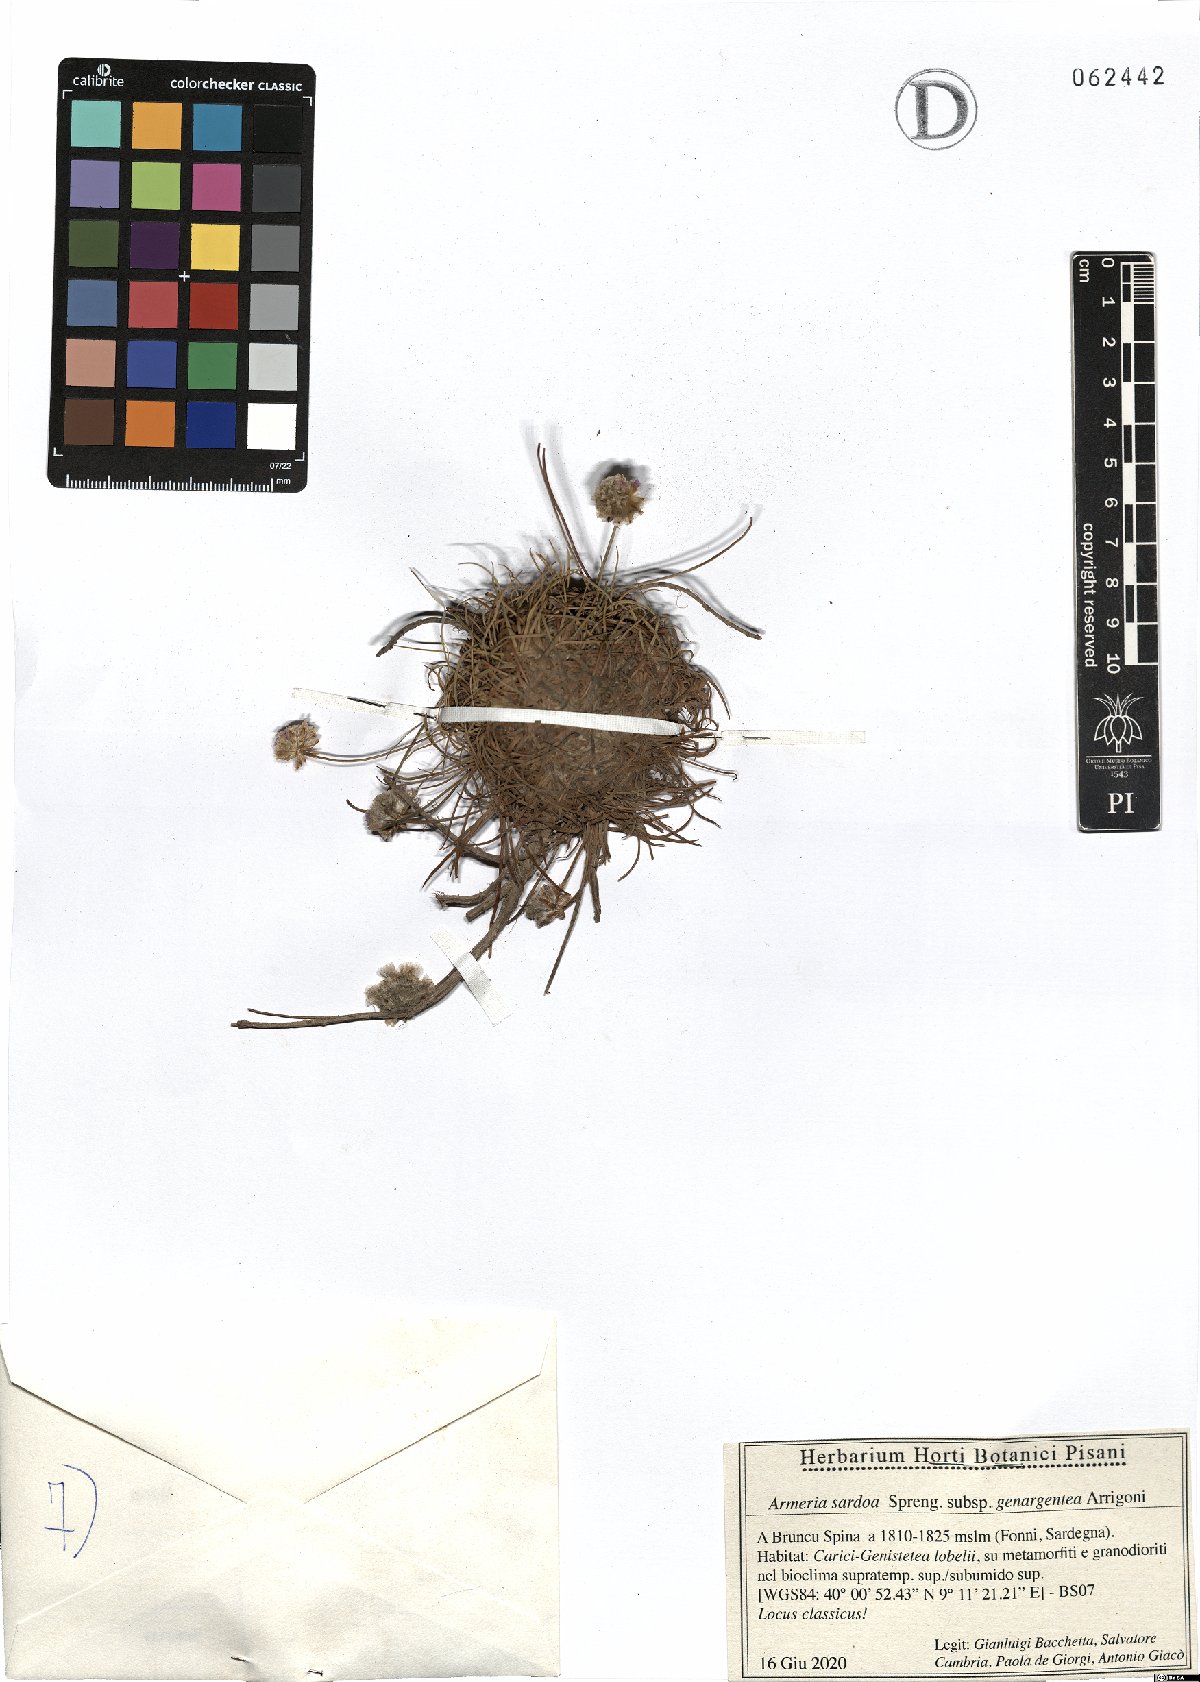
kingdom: Plantae
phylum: Tracheophyta
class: Magnoliopsida
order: Caryophyllales
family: Plumbaginaceae
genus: Armeria
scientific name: Armeria sardoa
